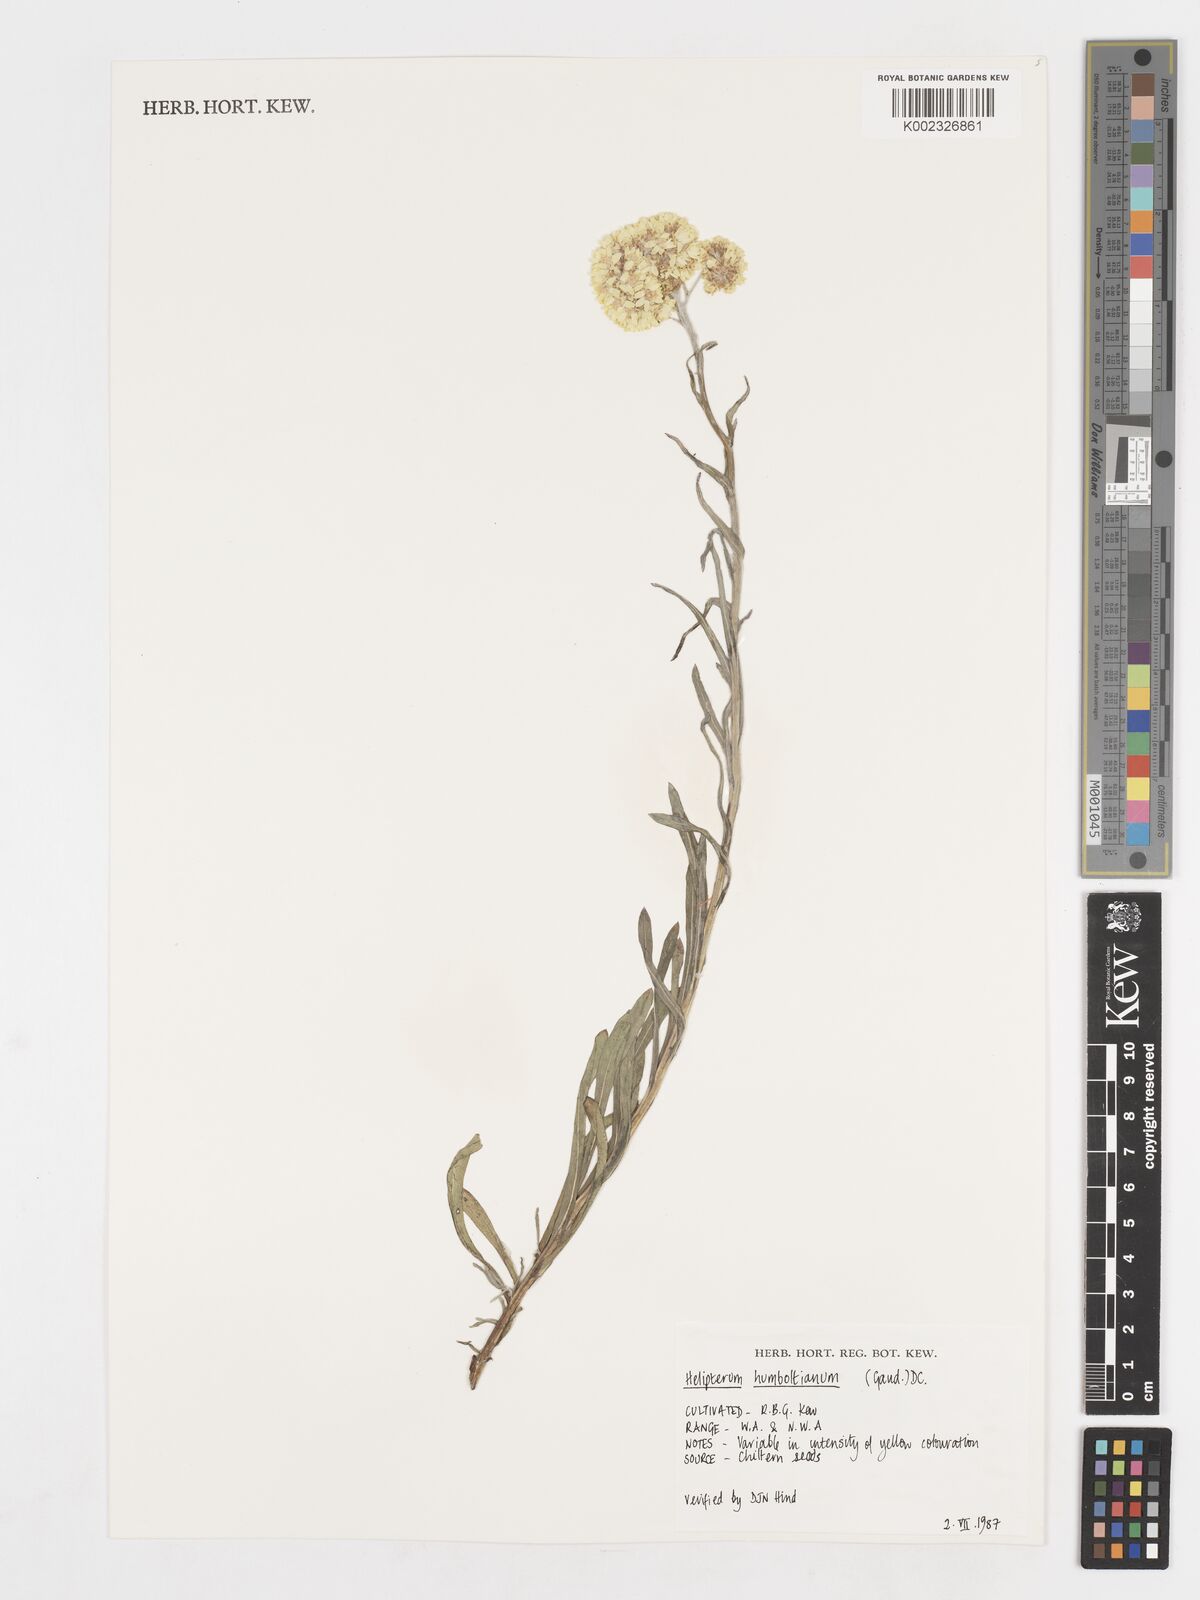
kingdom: Plantae
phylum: Tracheophyta
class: Magnoliopsida
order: Asterales
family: Asteraceae
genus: Syncarpha
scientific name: Syncarpha
